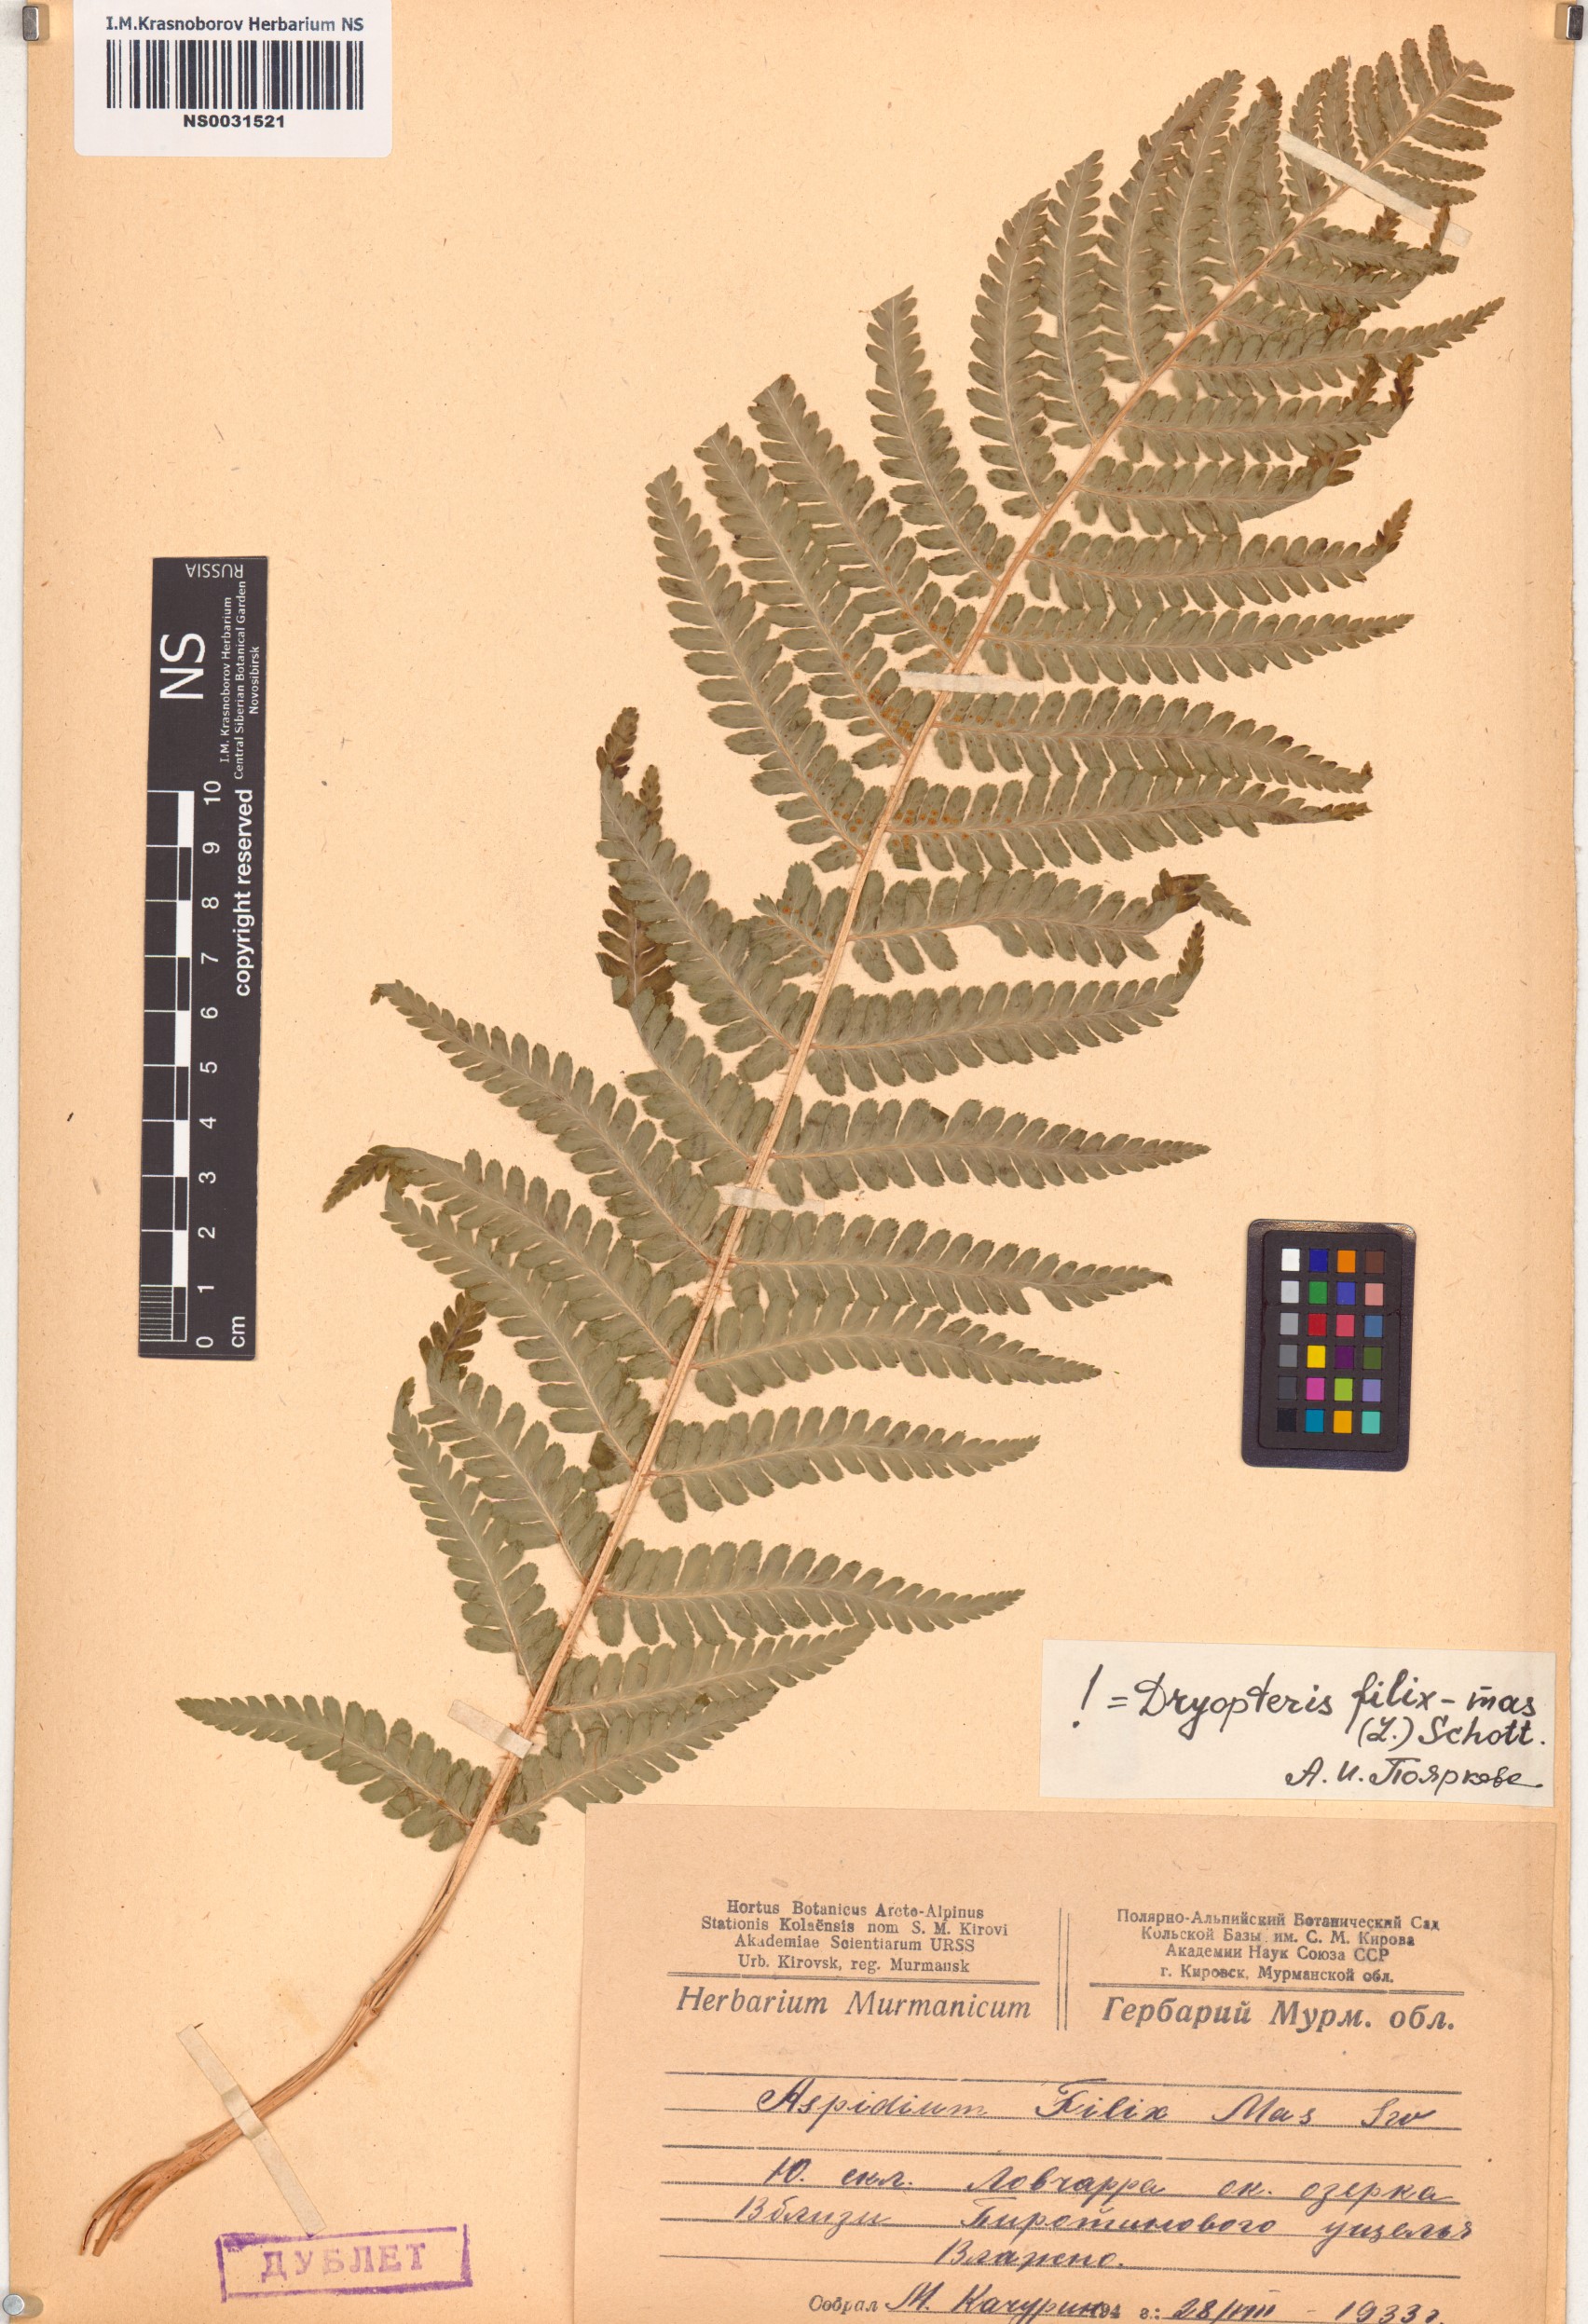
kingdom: Plantae
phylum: Tracheophyta
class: Polypodiopsida
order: Polypodiales
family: Dryopteridaceae
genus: Dryopteris
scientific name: Dryopteris filix-mas
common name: Male fern
